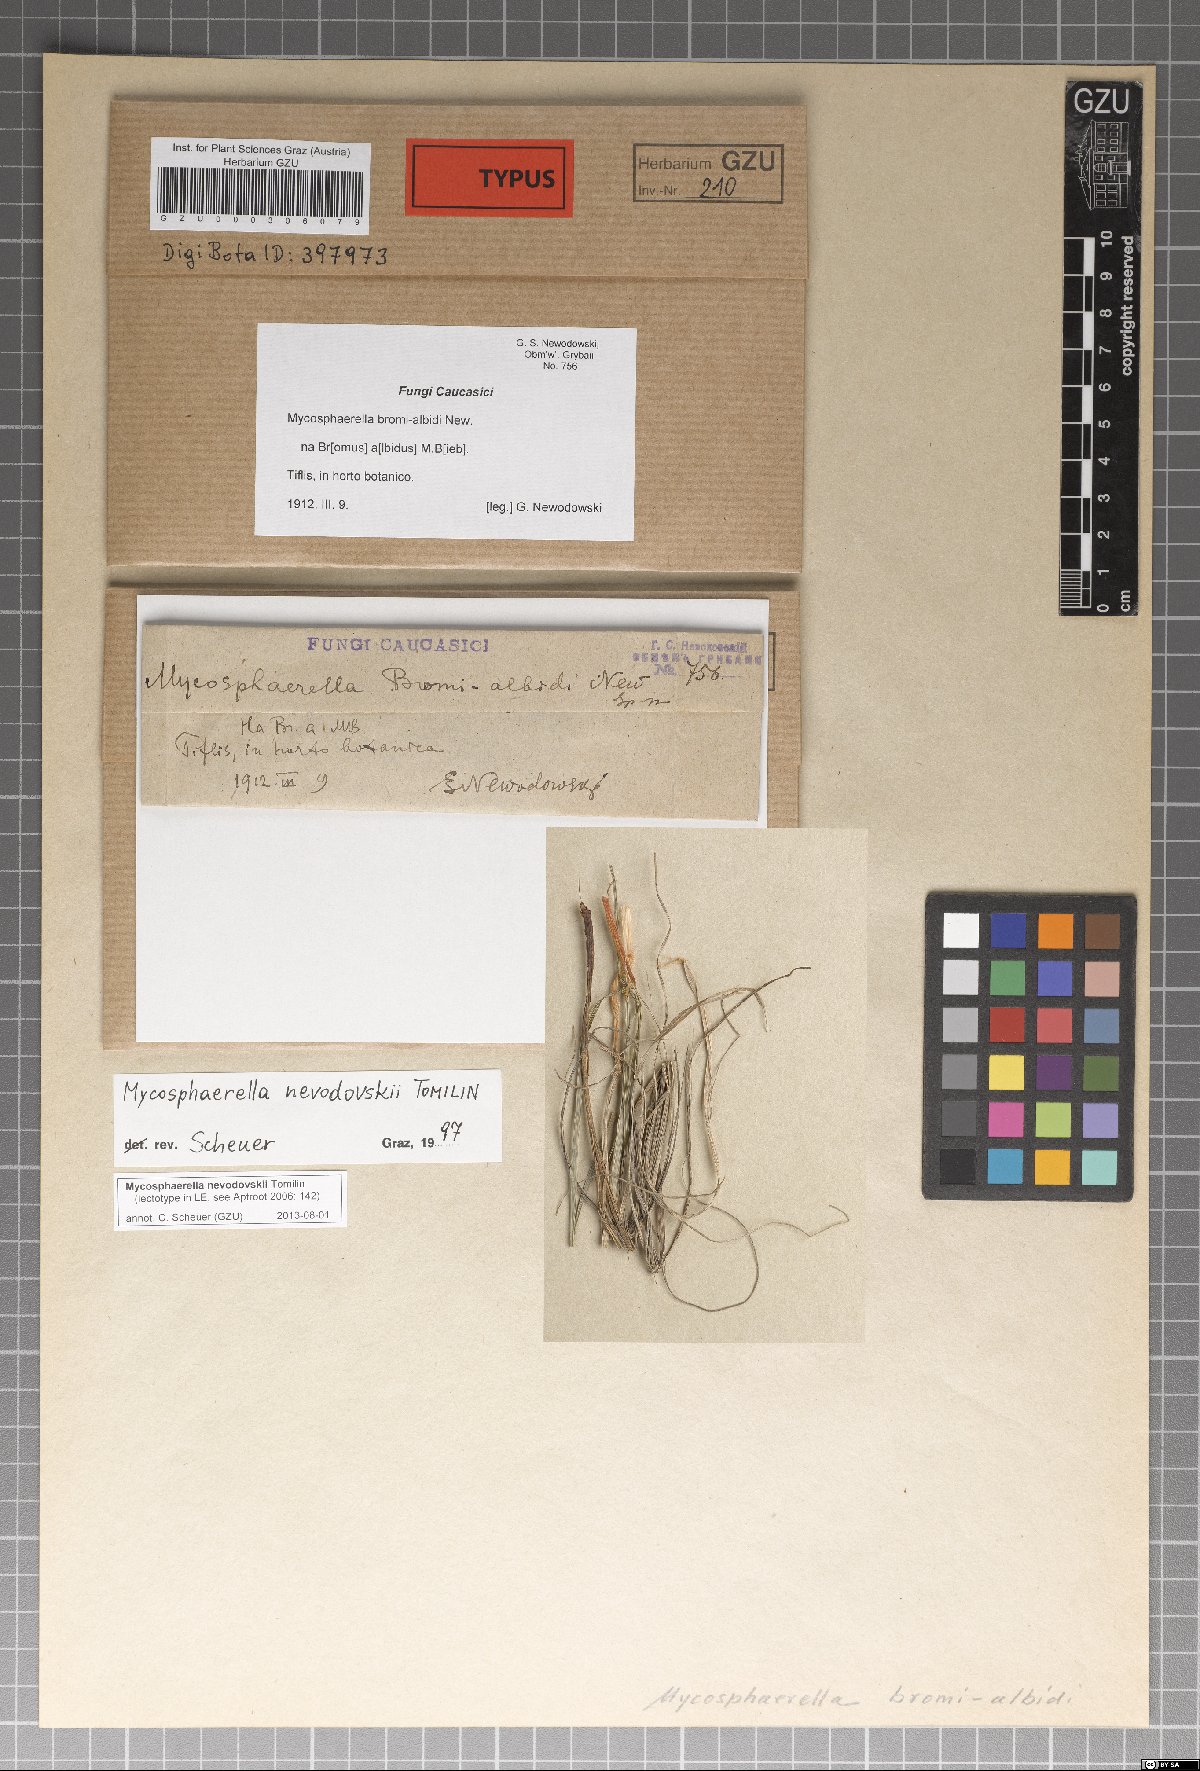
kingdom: Fungi
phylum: Ascomycota
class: Dothideomycetes
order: Mycosphaerellales
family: Mycosphaerellaceae
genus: Mycosphaerella
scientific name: Mycosphaerella nevodovskii
